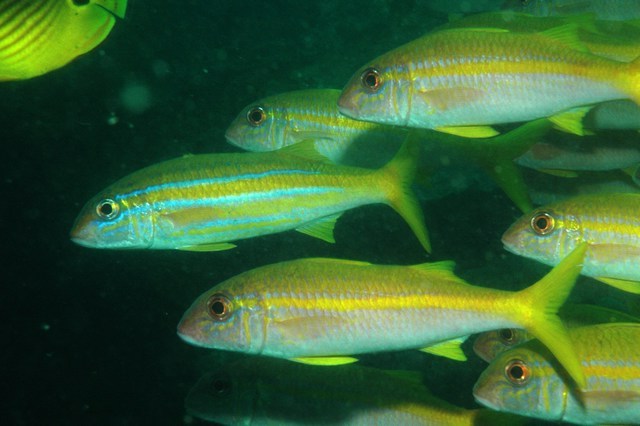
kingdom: Animalia
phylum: Chordata
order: Perciformes
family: Mullidae
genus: Mulloidichthys
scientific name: Mulloidichthys vanicolensis
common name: Yellowfin goatfish
